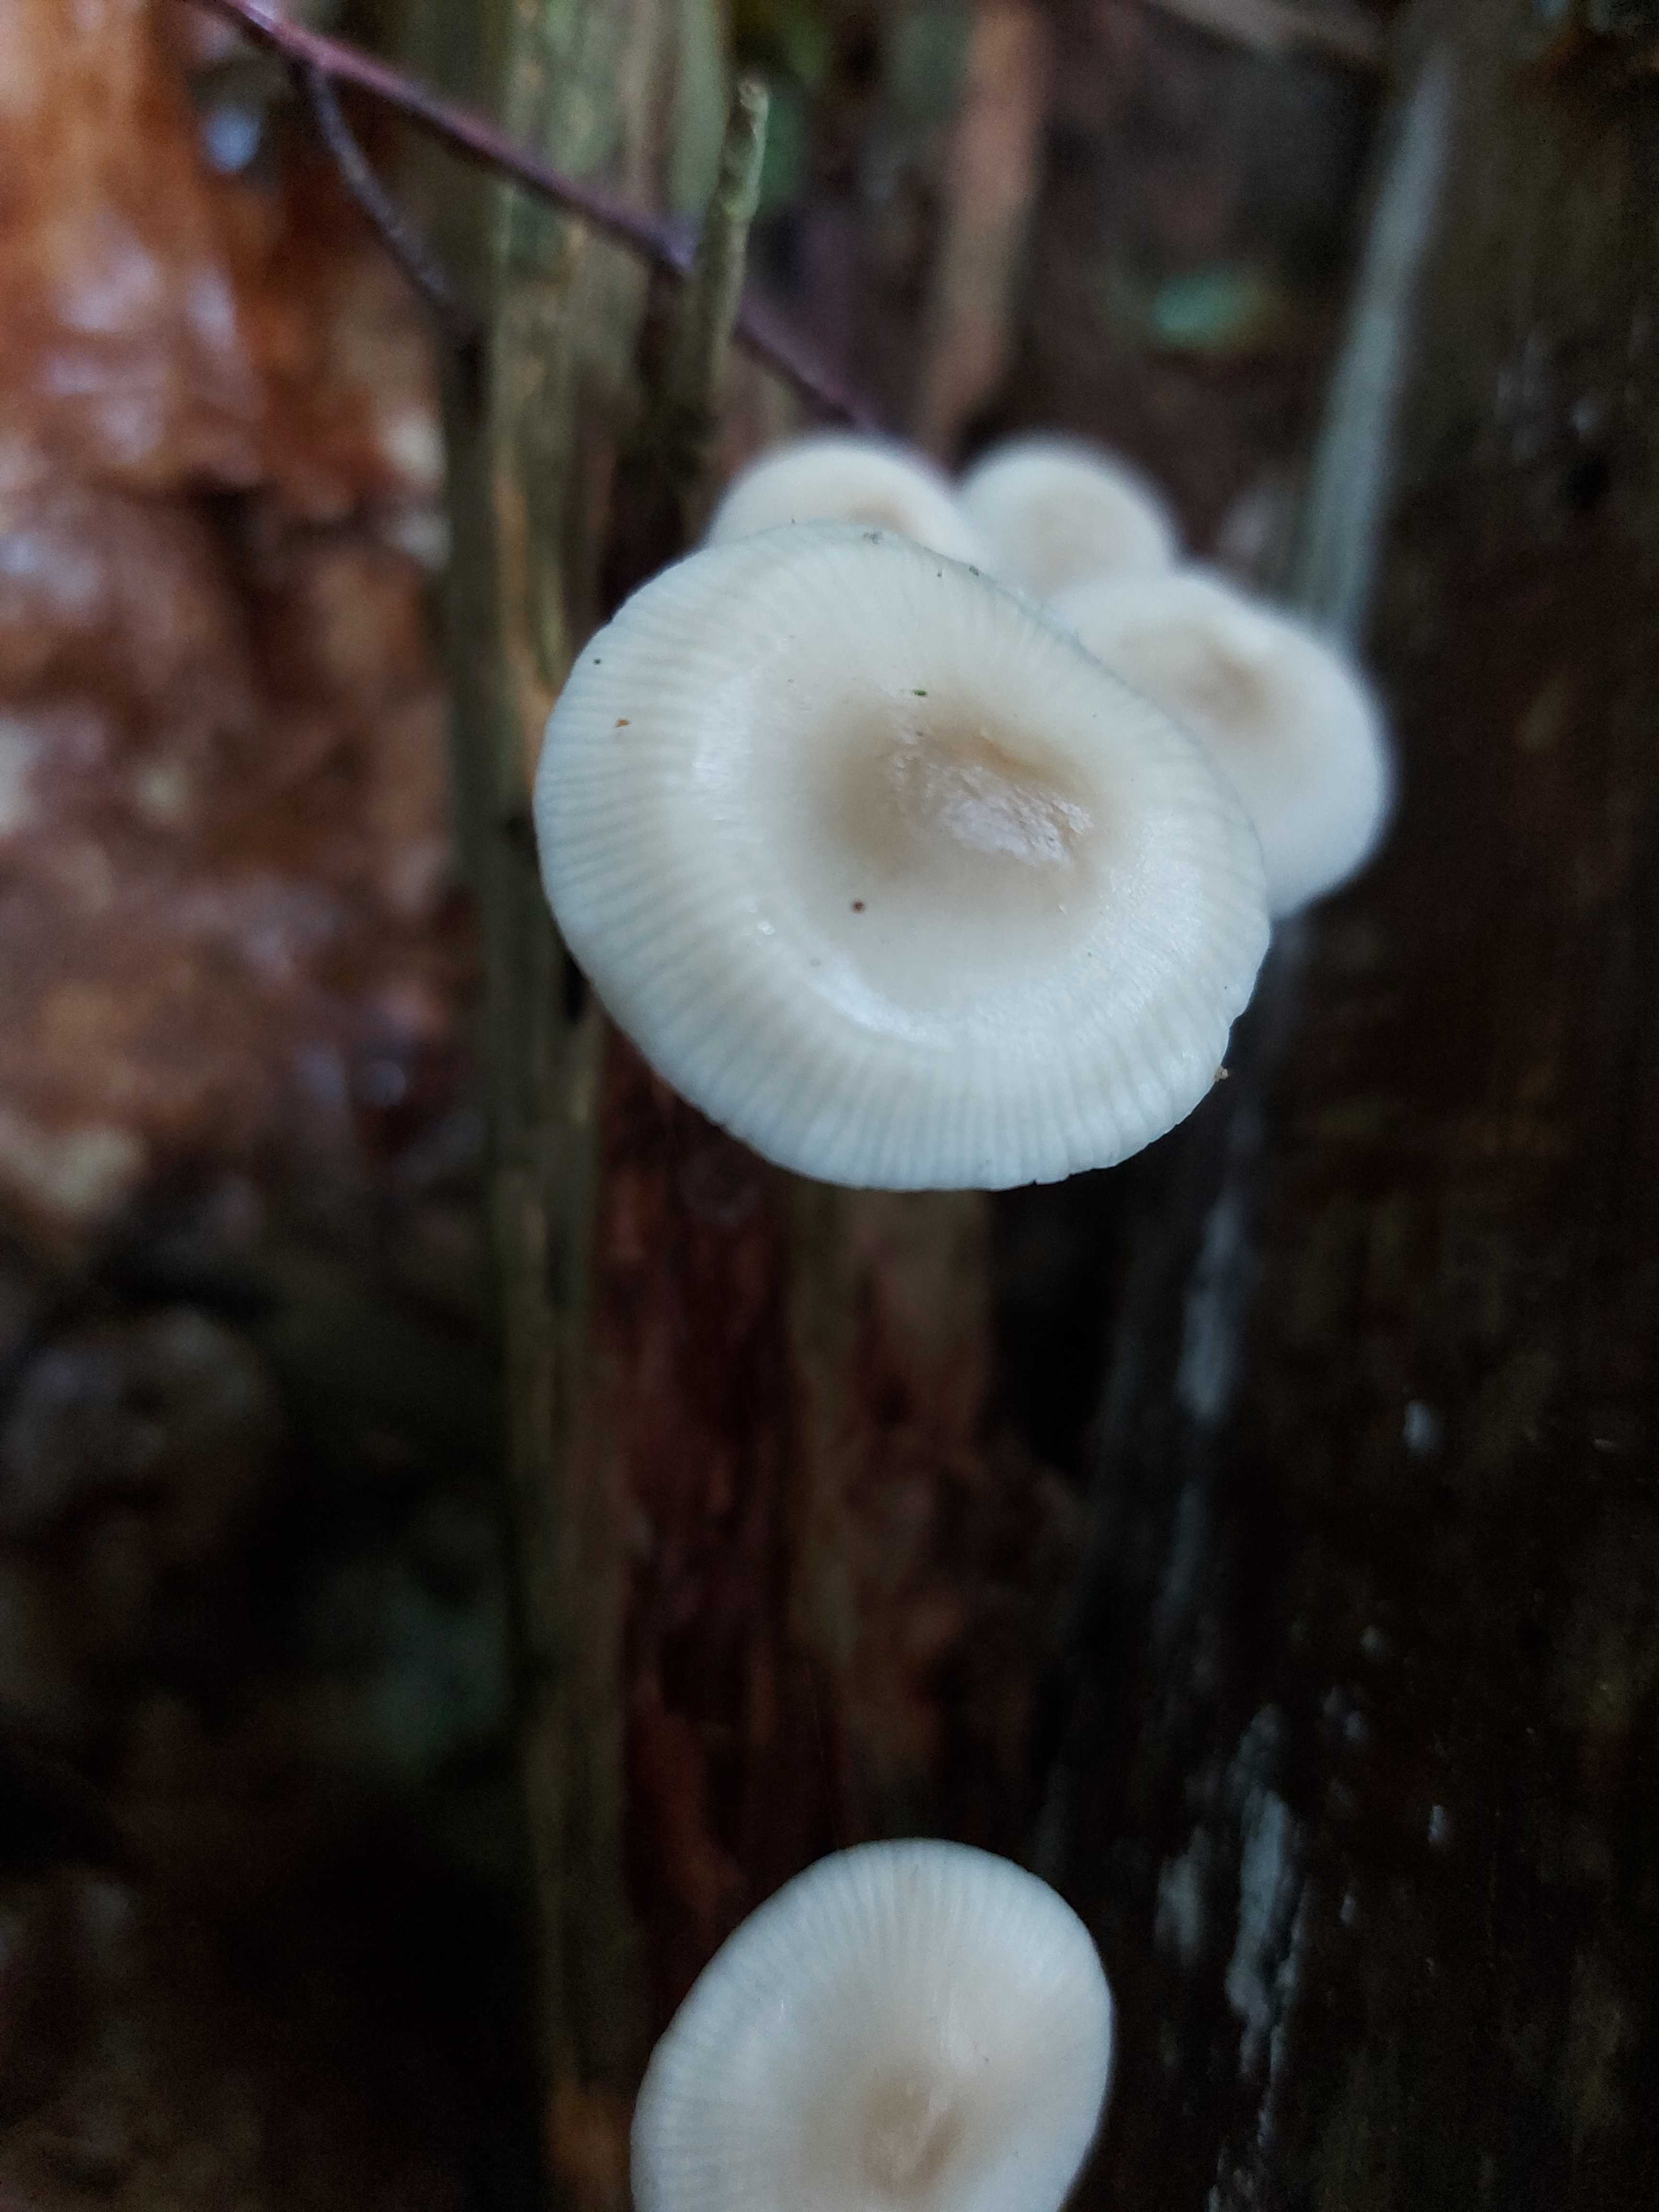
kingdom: Fungi
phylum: Basidiomycota
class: Agaricomycetes
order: Agaricales
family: Mycenaceae
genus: Mycena
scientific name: Mycena galericulata
